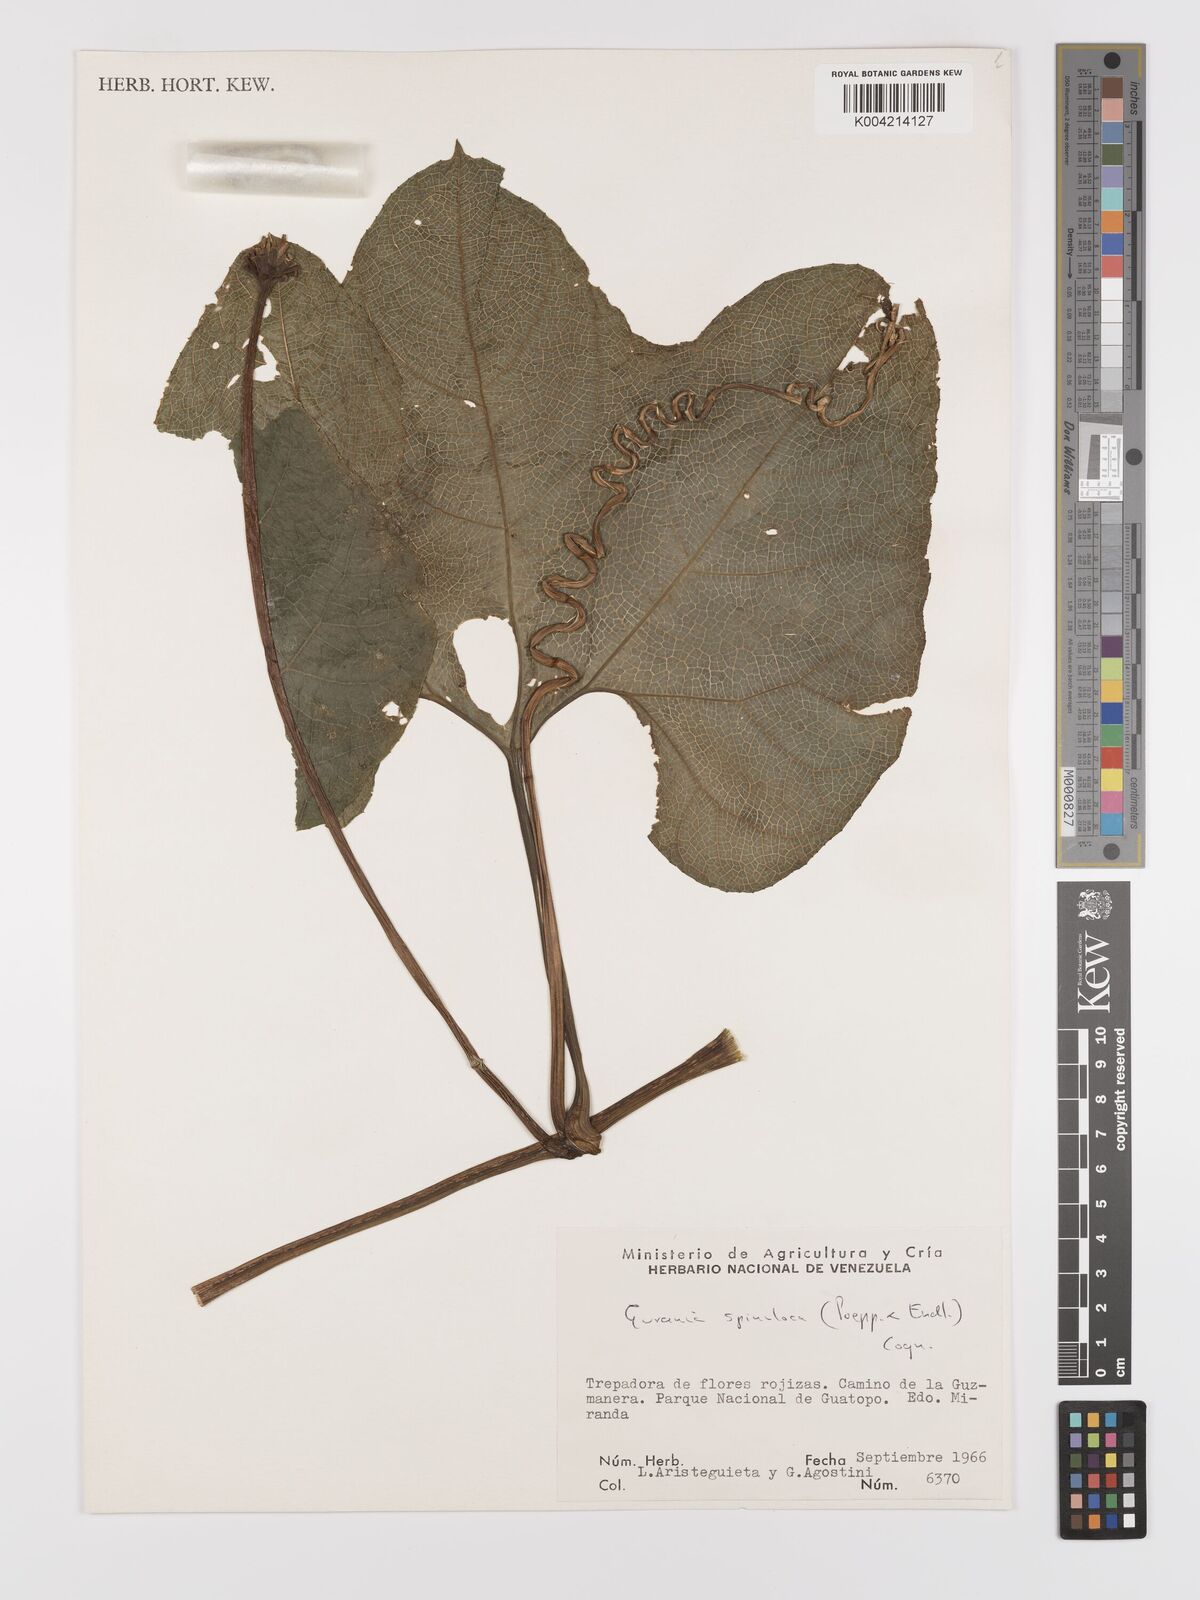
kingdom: Plantae
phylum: Tracheophyta
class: Magnoliopsida
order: Cucurbitales
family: Cucurbitaceae
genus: Gurania
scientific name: Gurania lobata
